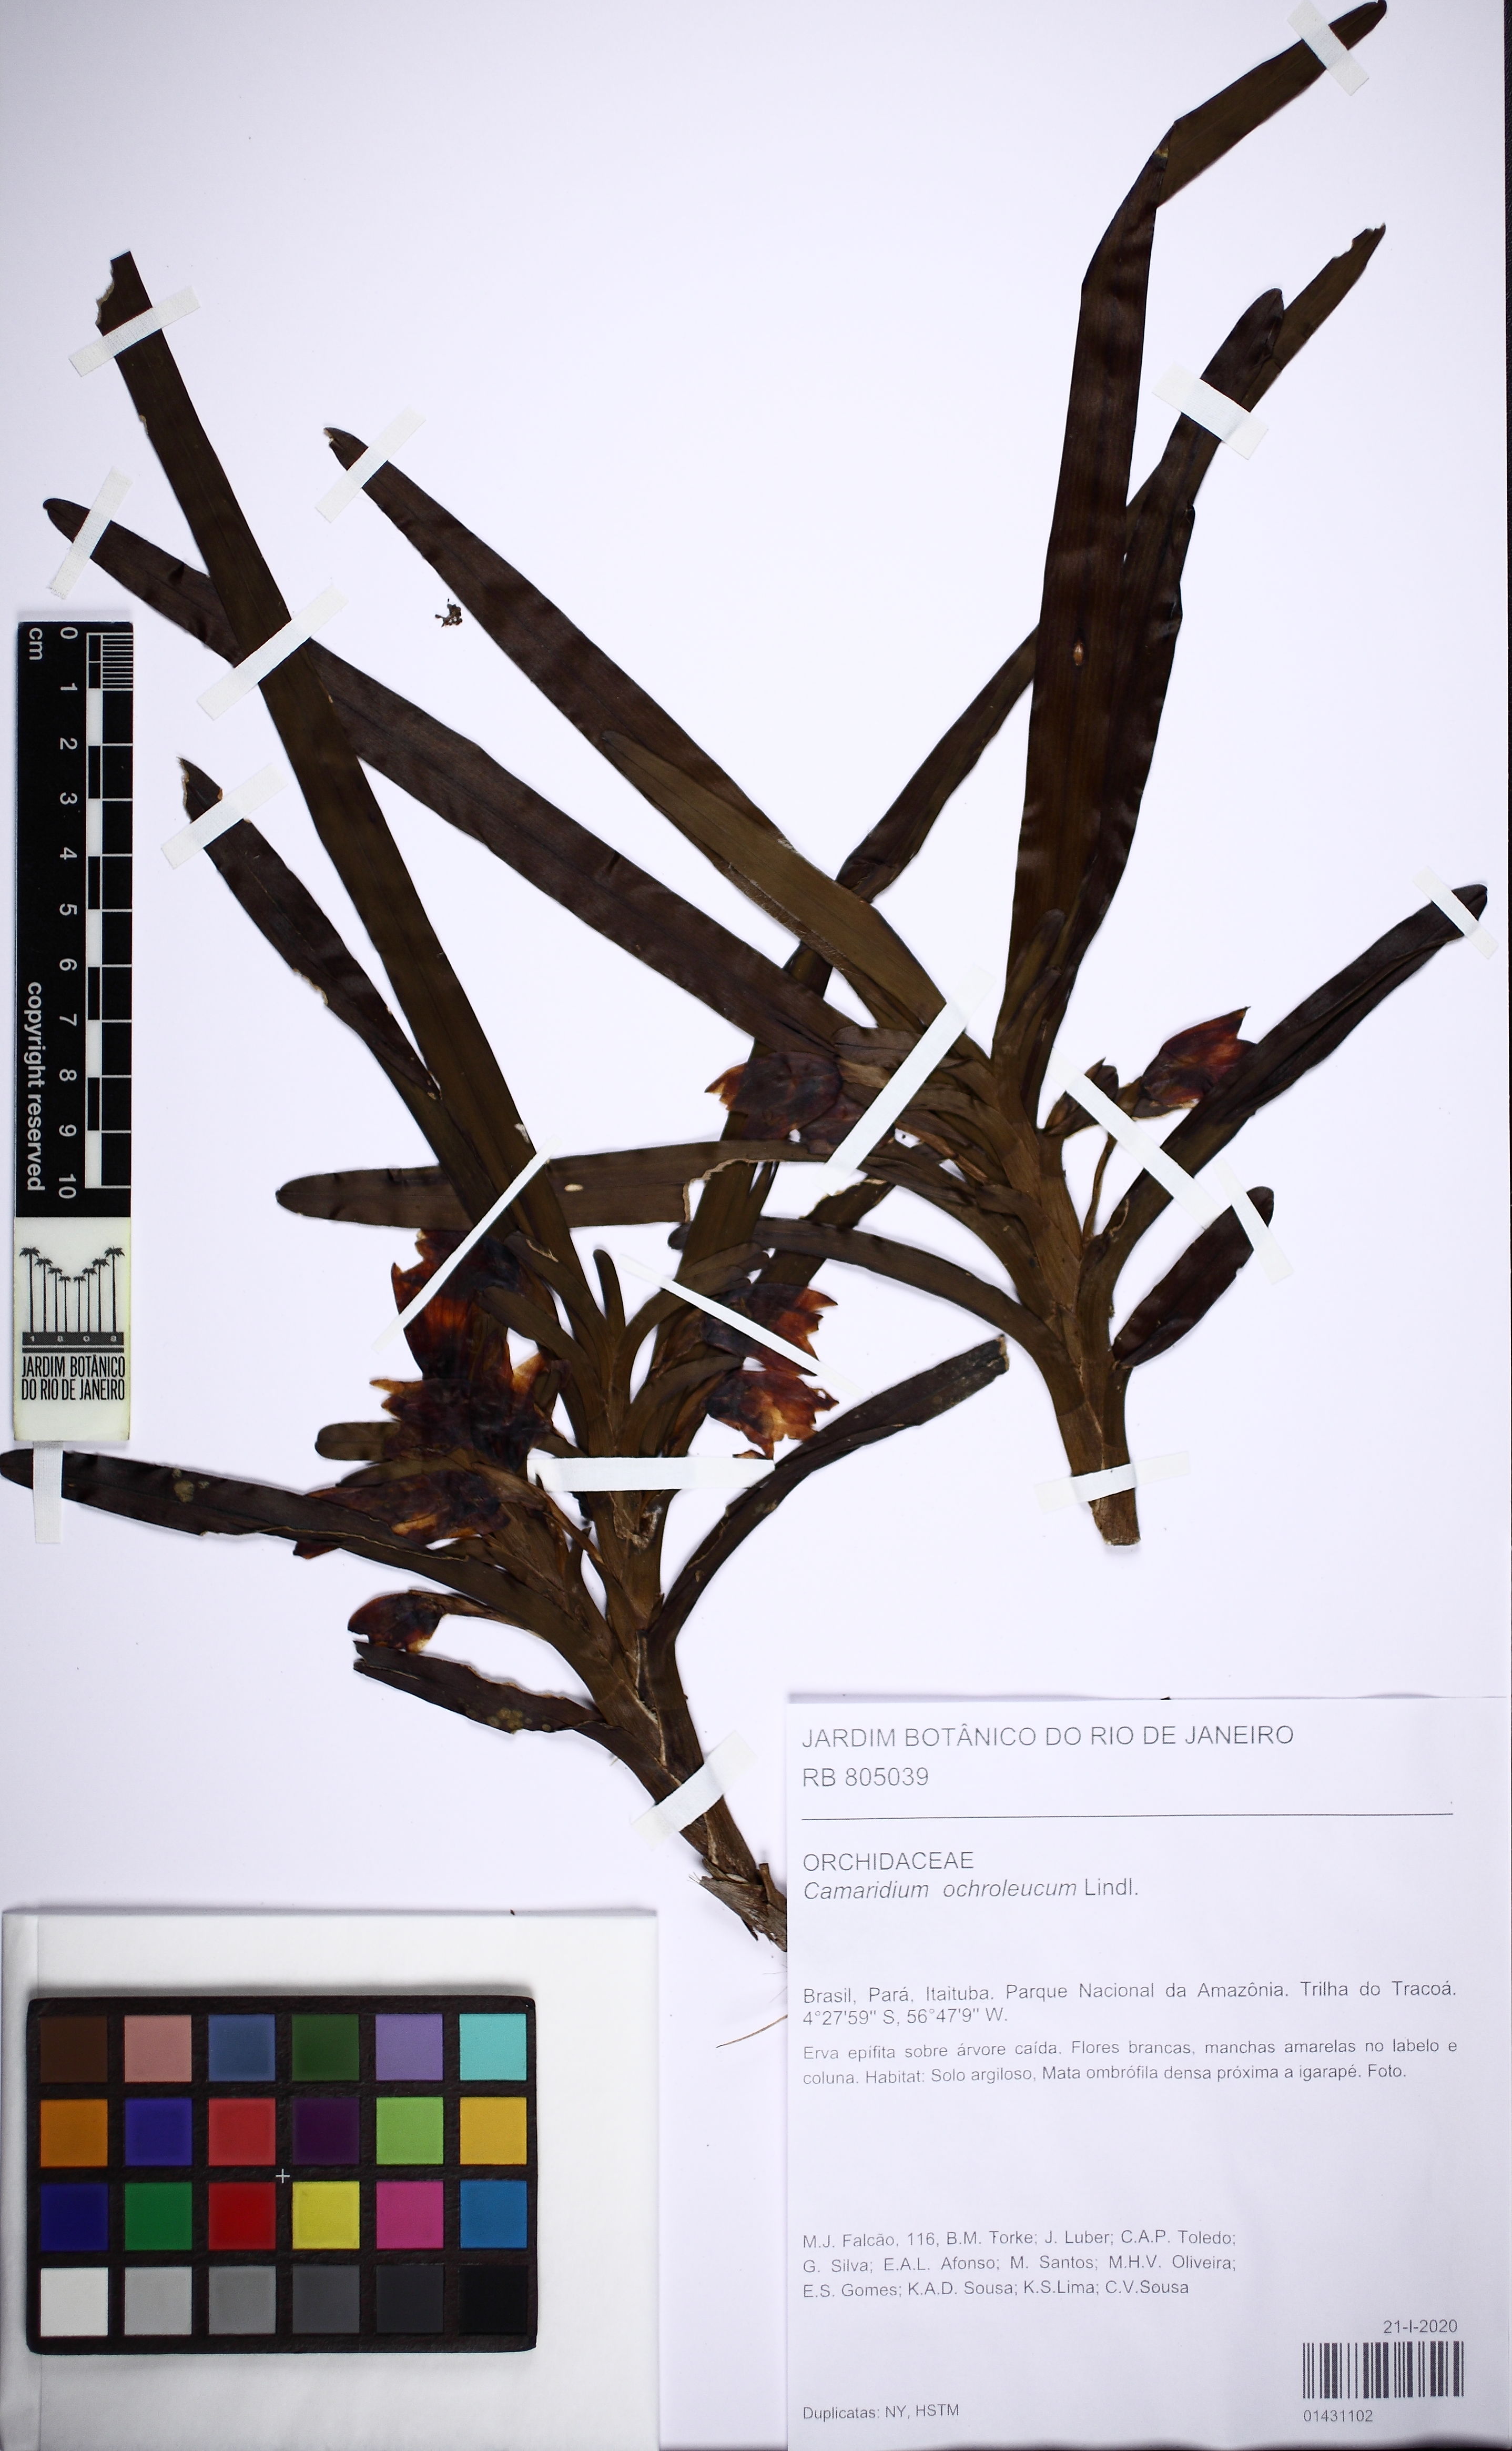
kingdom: Plantae
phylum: Tracheophyta
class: Liliopsida
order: Asparagales
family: Orchidaceae
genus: Maxillaria
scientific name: Maxillaria lutescens
